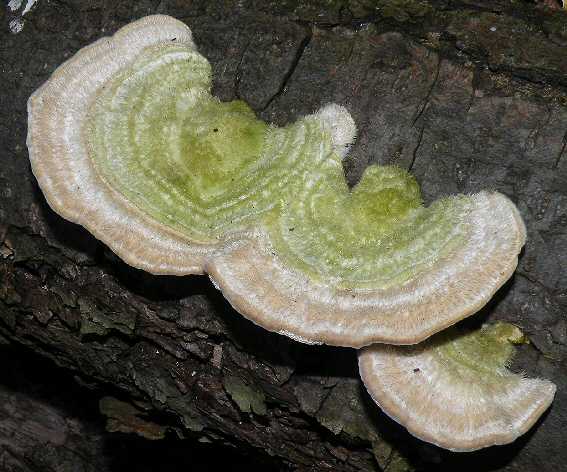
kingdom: Fungi
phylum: Basidiomycota
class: Agaricomycetes
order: Polyporales
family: Polyporaceae
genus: Trametes
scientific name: Trametes hirsuta
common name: håret læderporesvamp
